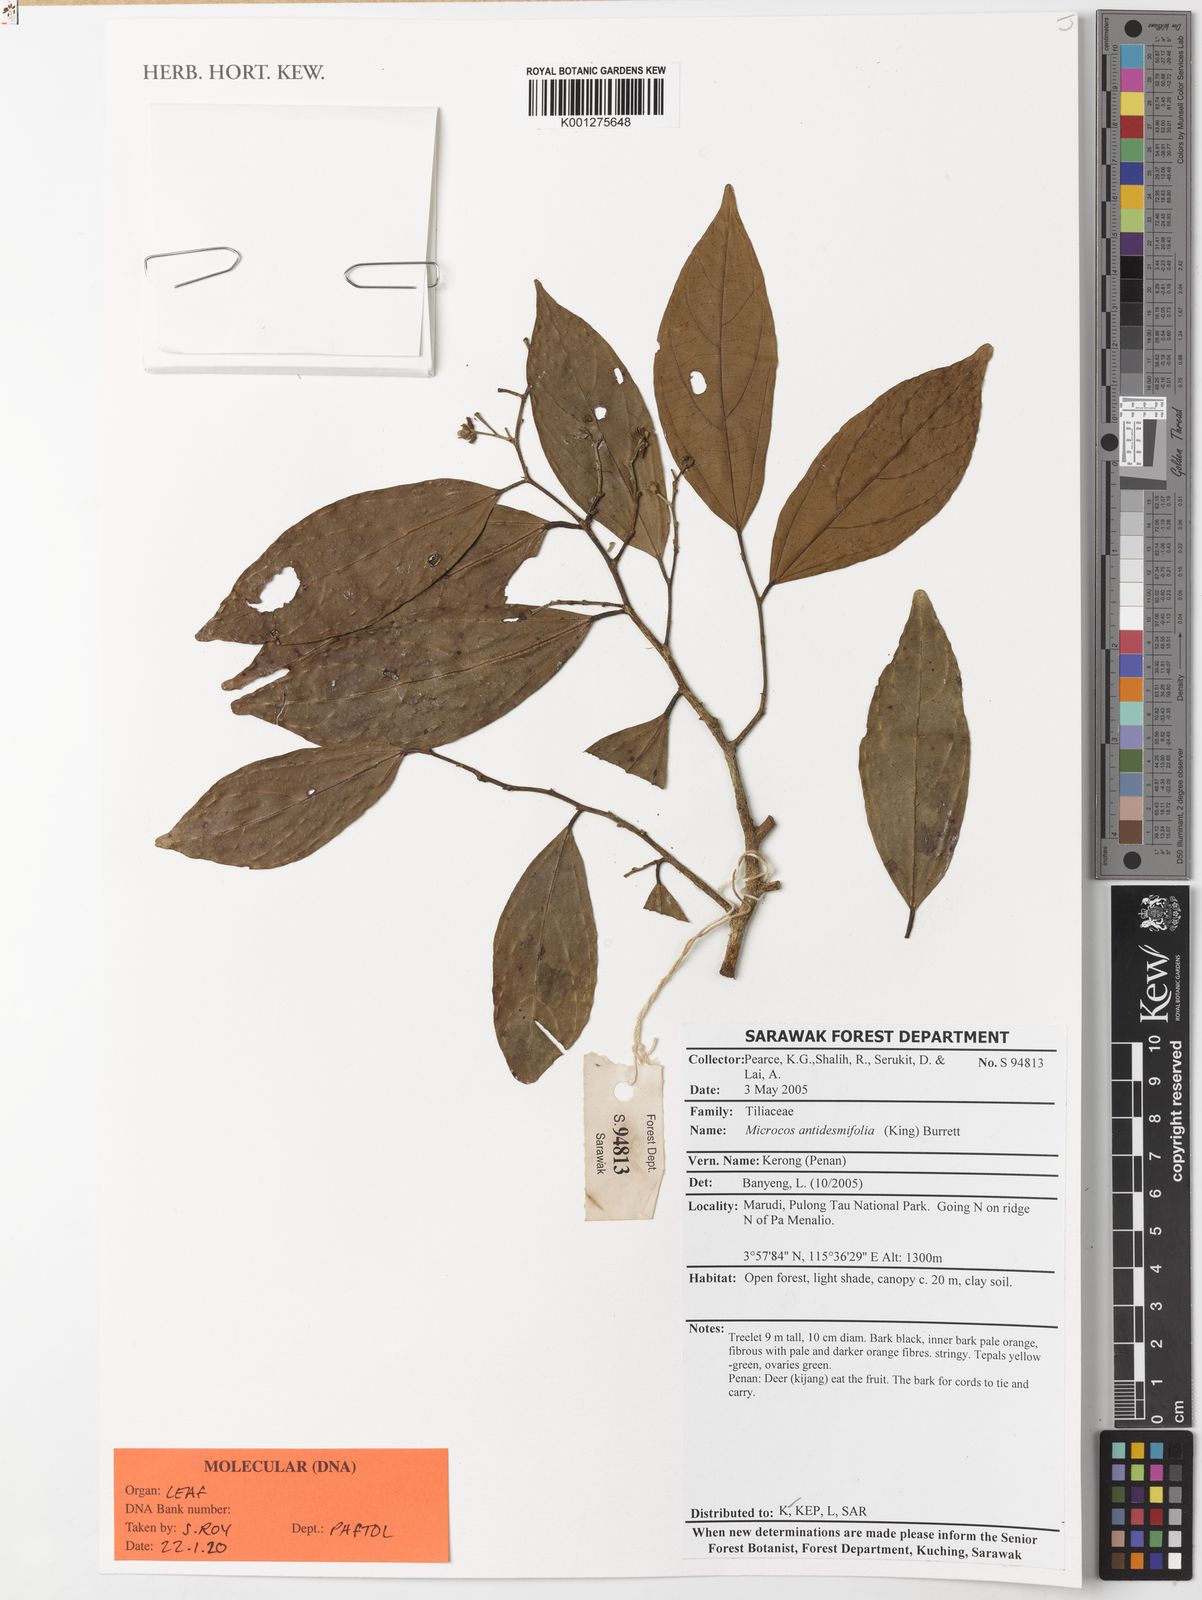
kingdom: Plantae
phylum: Tracheophyta
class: Magnoliopsida
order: Malvales
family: Malvaceae
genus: Microcos
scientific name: Microcos antidesmifolia
